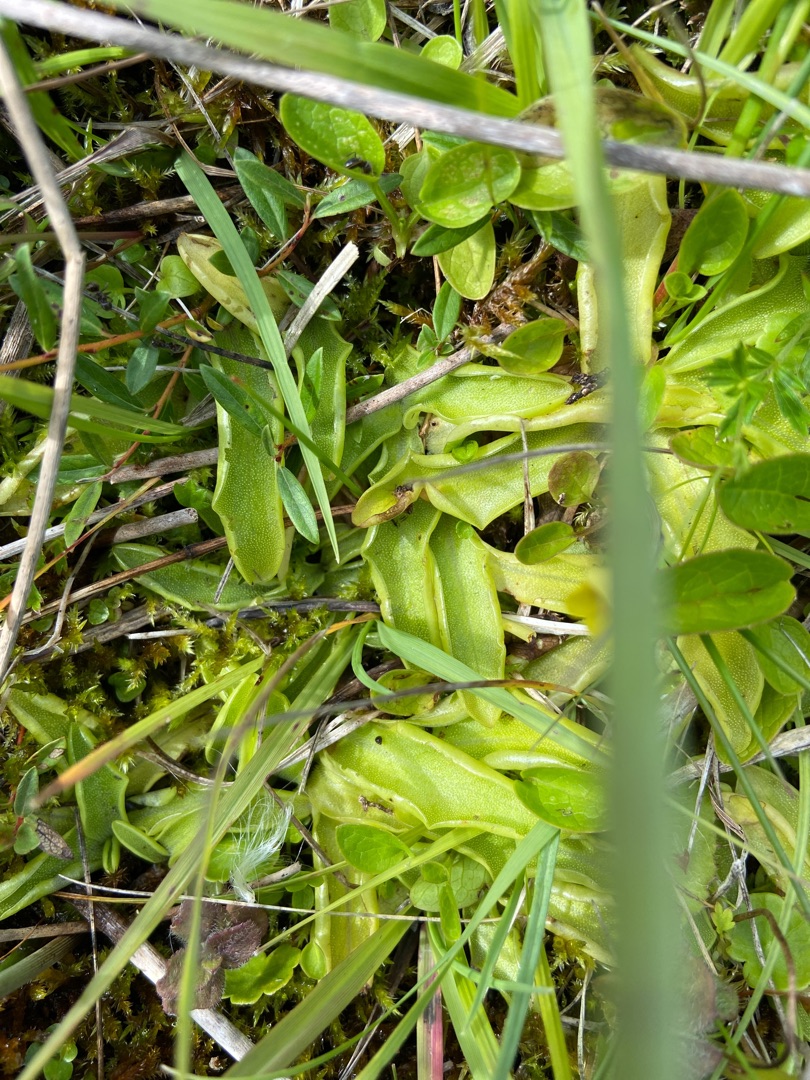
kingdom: Plantae
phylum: Tracheophyta
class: Magnoliopsida
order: Lamiales
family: Lentibulariaceae
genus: Pinguicula
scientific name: Pinguicula vulgaris
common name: Vibefedt
